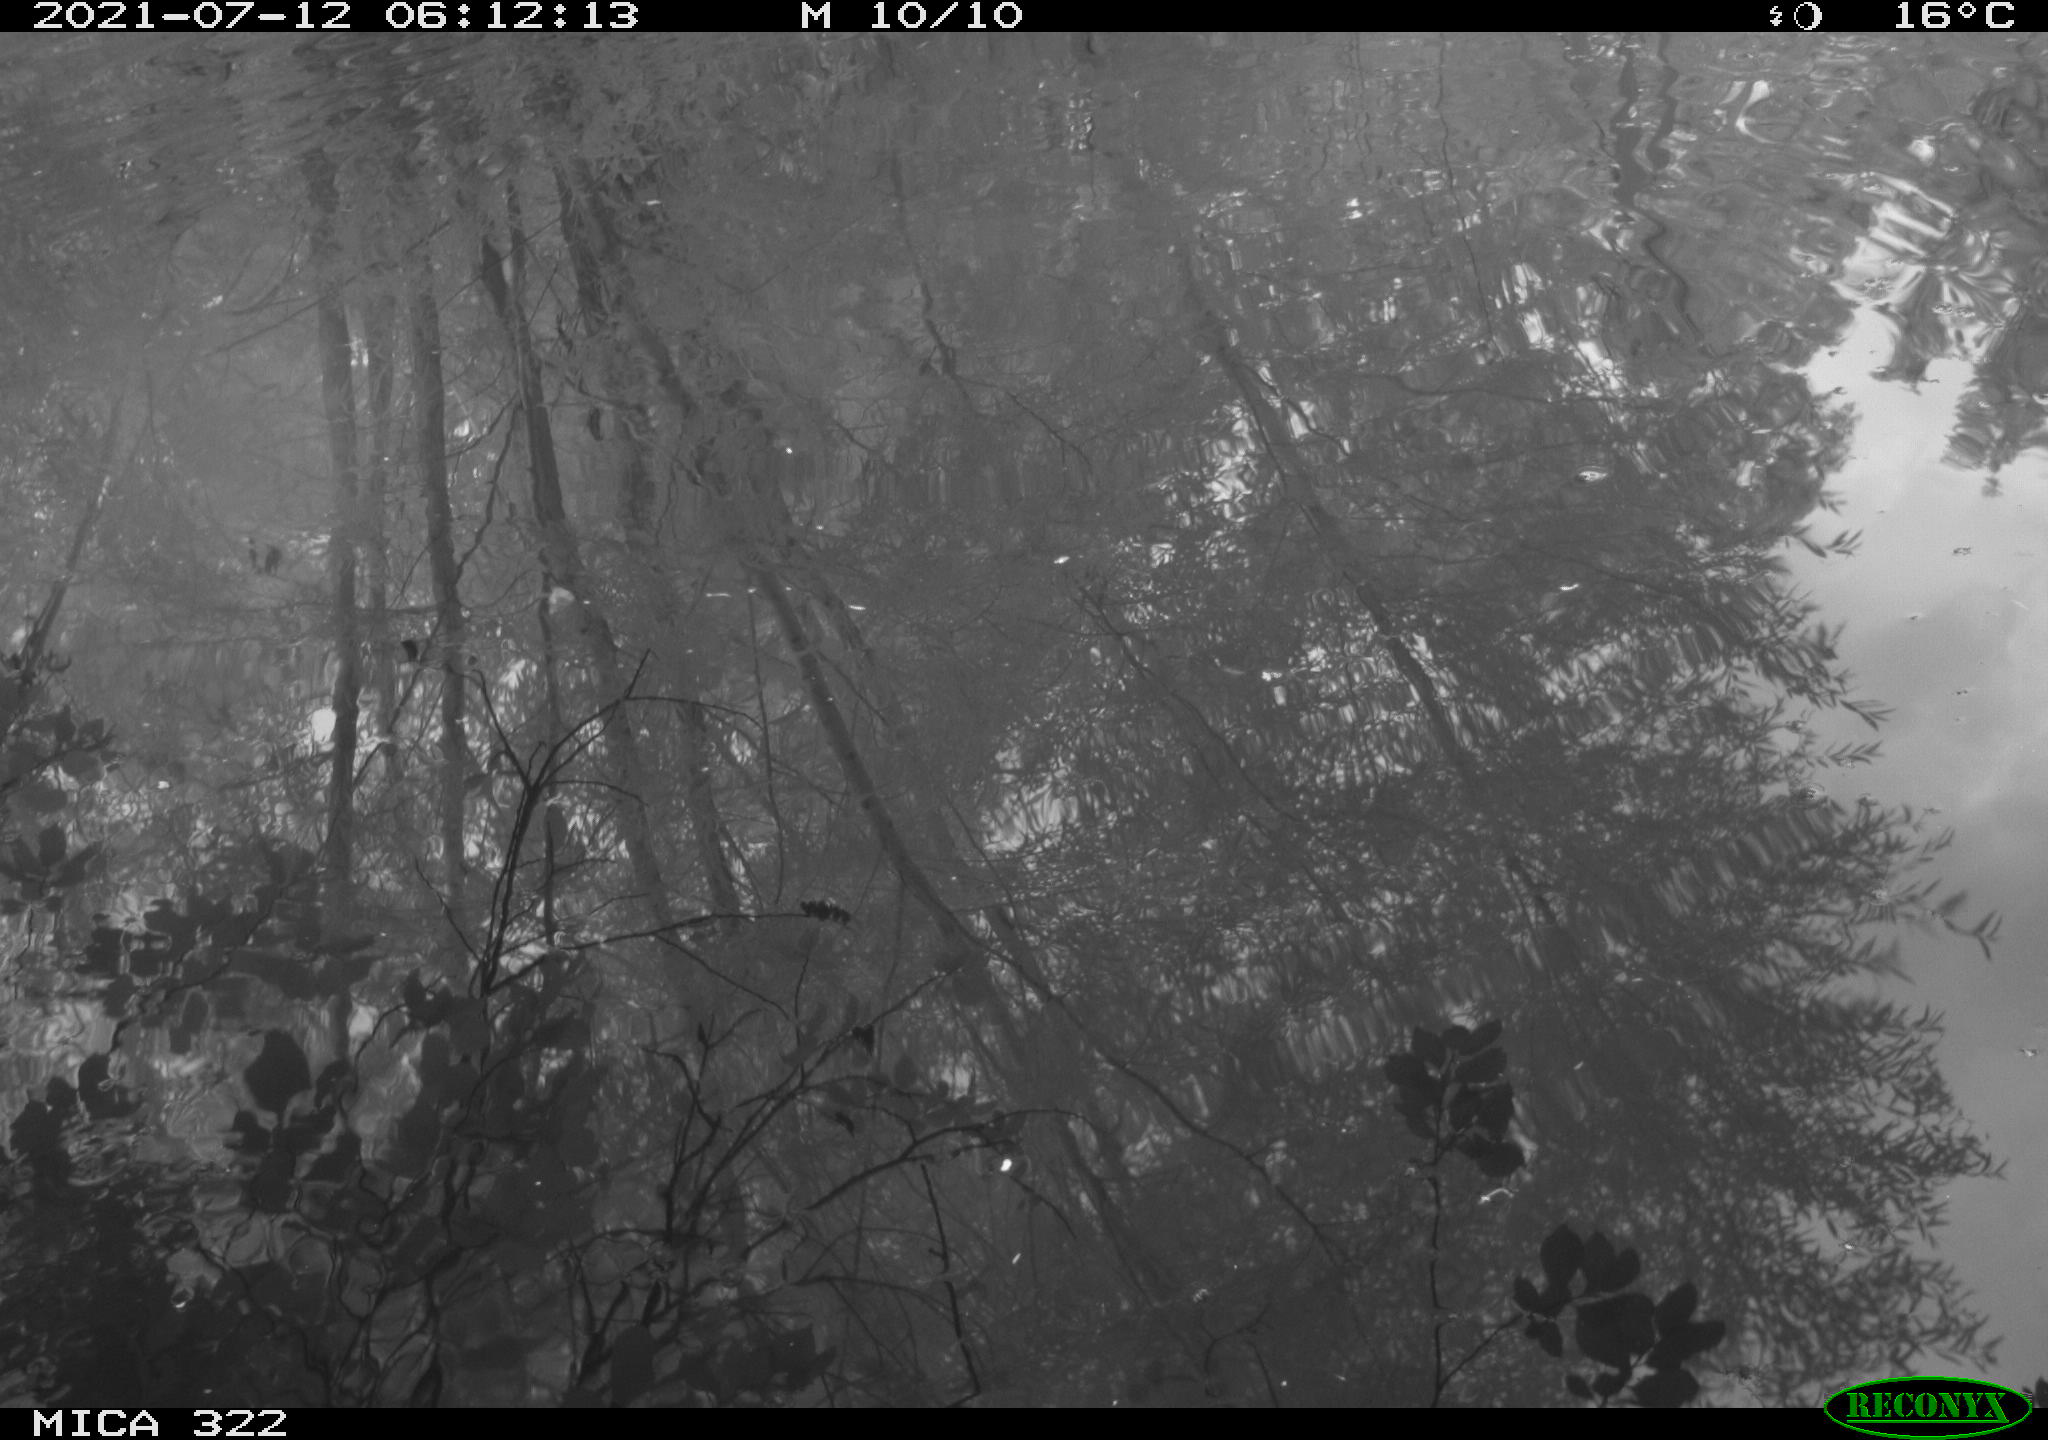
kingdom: Animalia
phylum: Chordata
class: Aves
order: Gruiformes
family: Rallidae
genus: Fulica
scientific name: Fulica atra
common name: Eurasian coot
